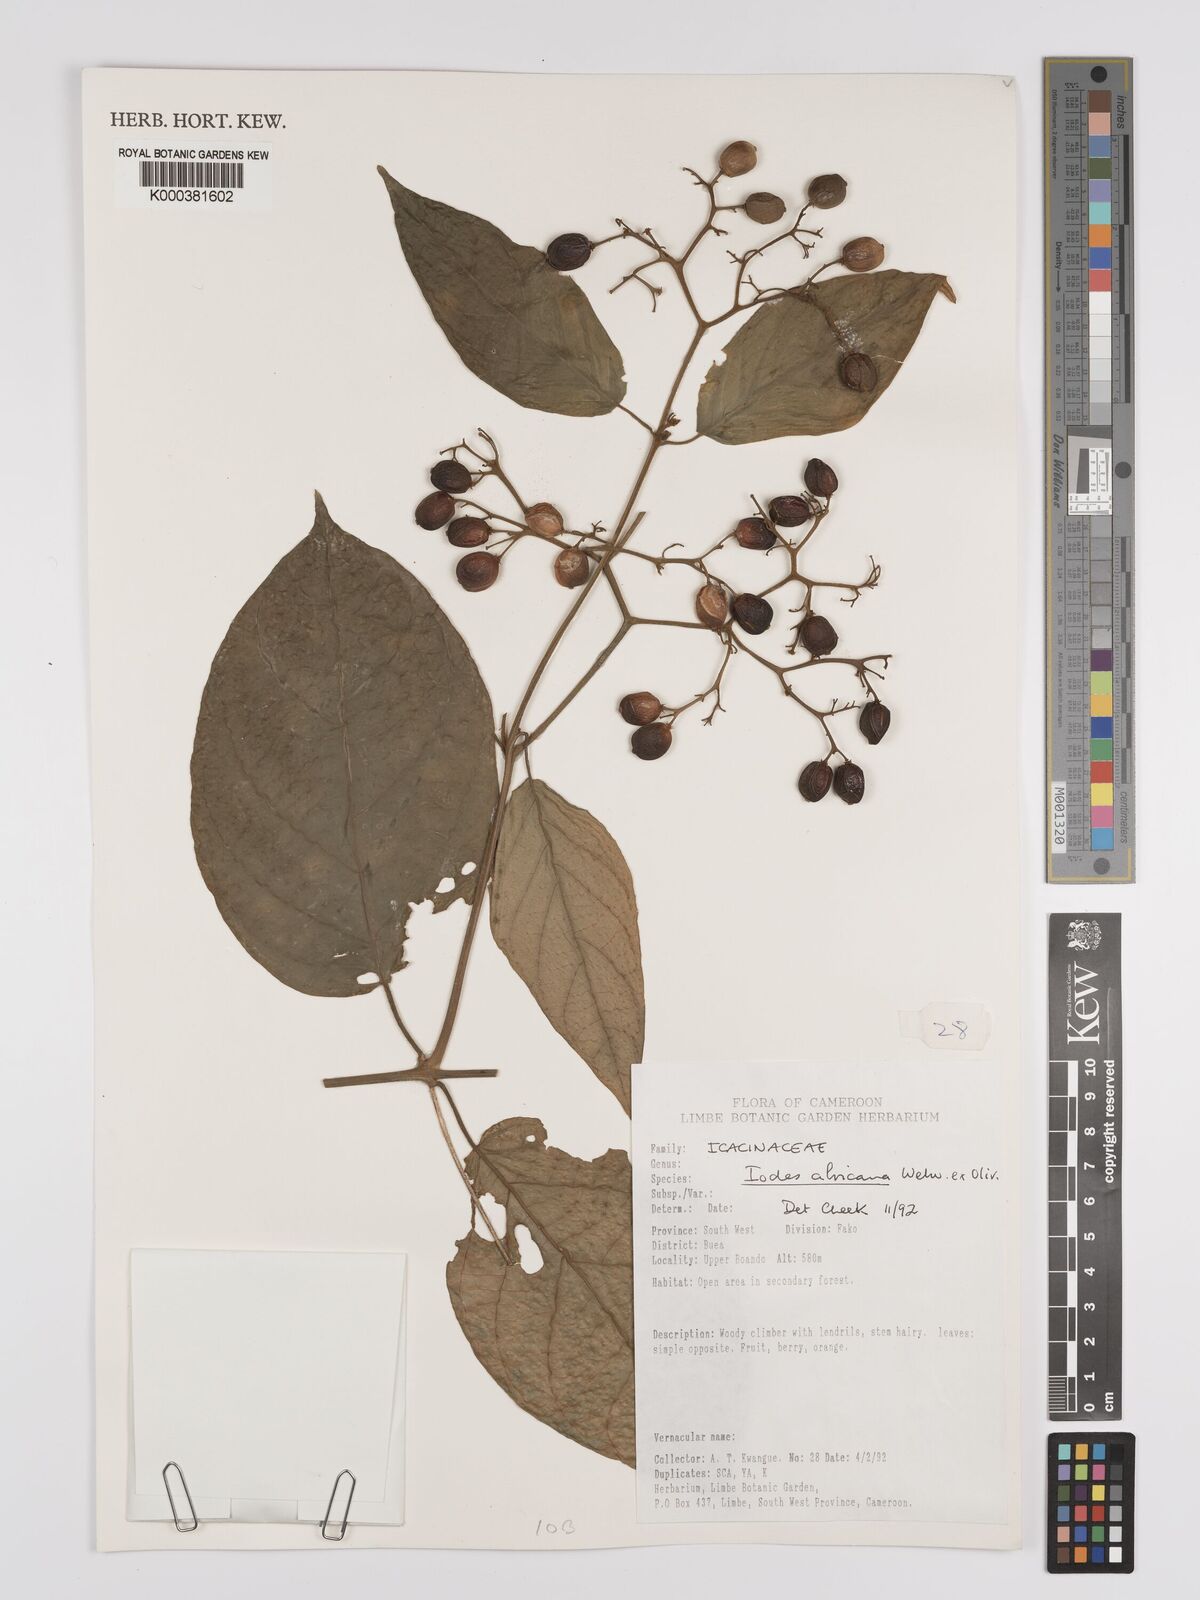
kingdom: Plantae
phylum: Tracheophyta
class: Magnoliopsida
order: Icacinales
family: Icacinaceae
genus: Iodes
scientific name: Iodes africana
